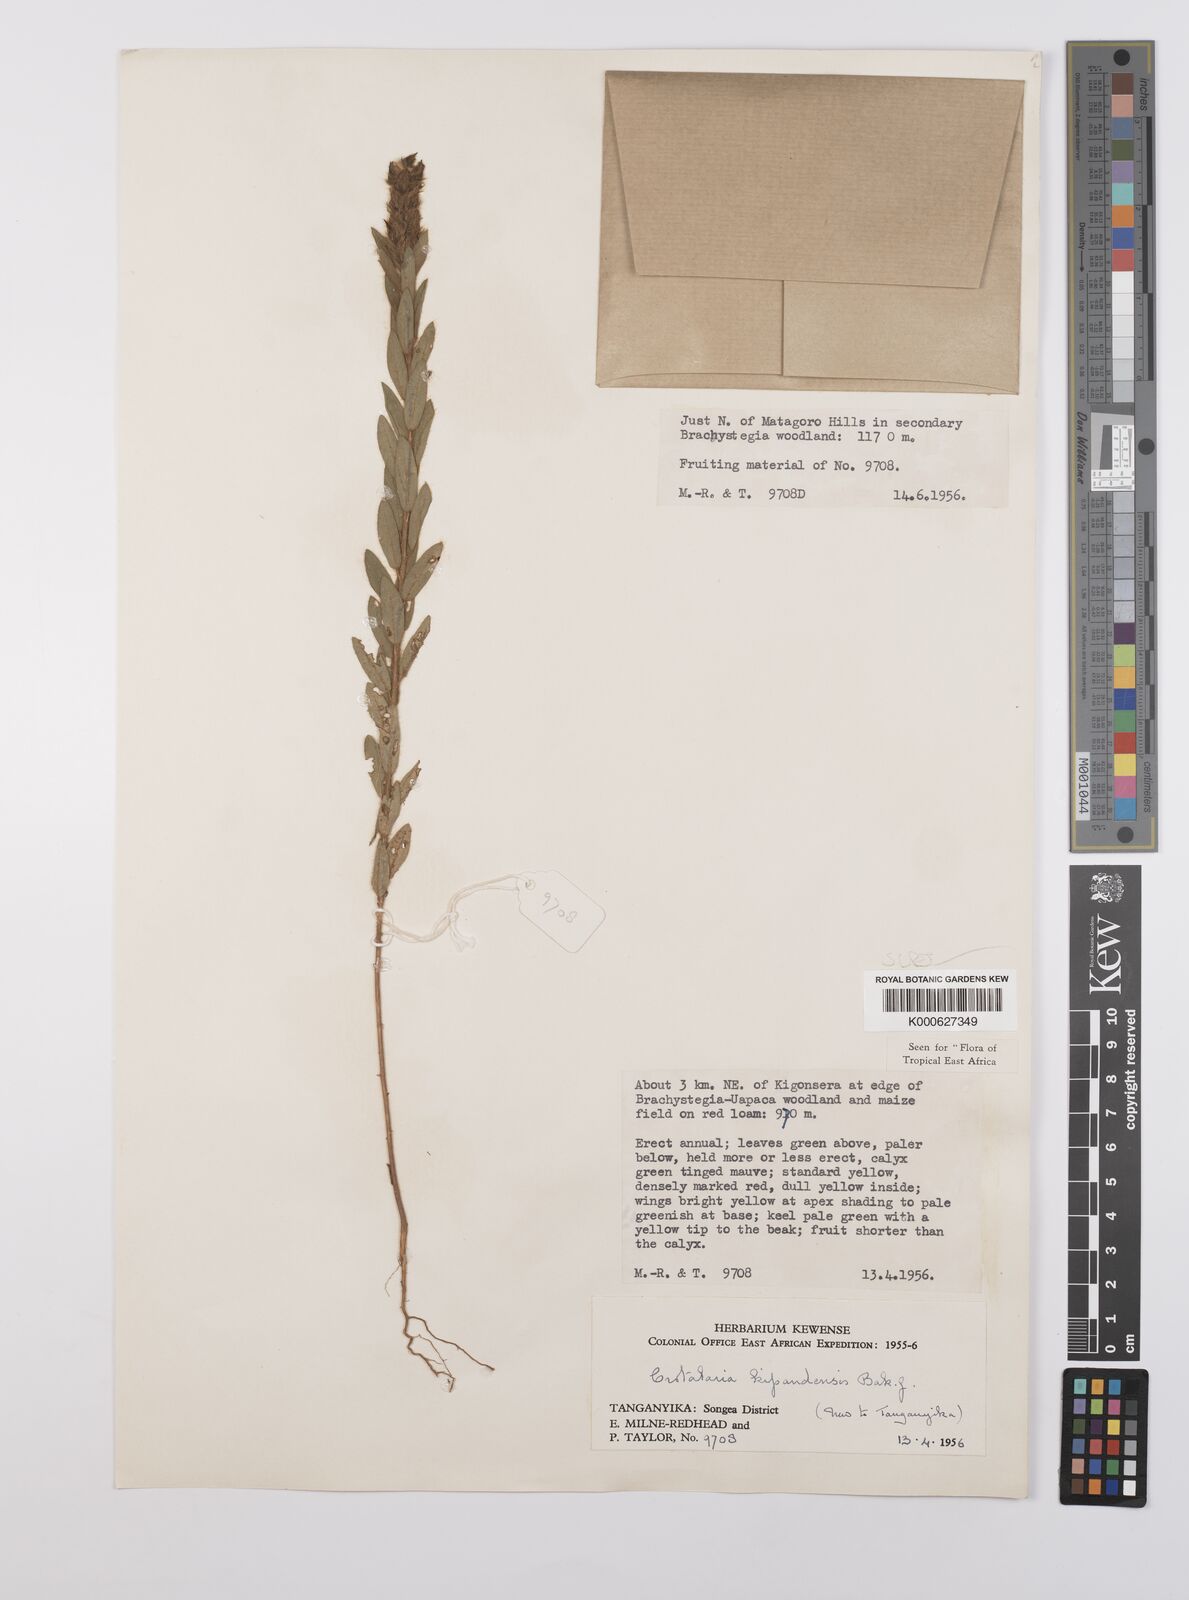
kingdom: Plantae
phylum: Tracheophyta
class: Magnoliopsida
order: Fabales
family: Fabaceae
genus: Crotalaria
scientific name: Crotalaria kipandensis
